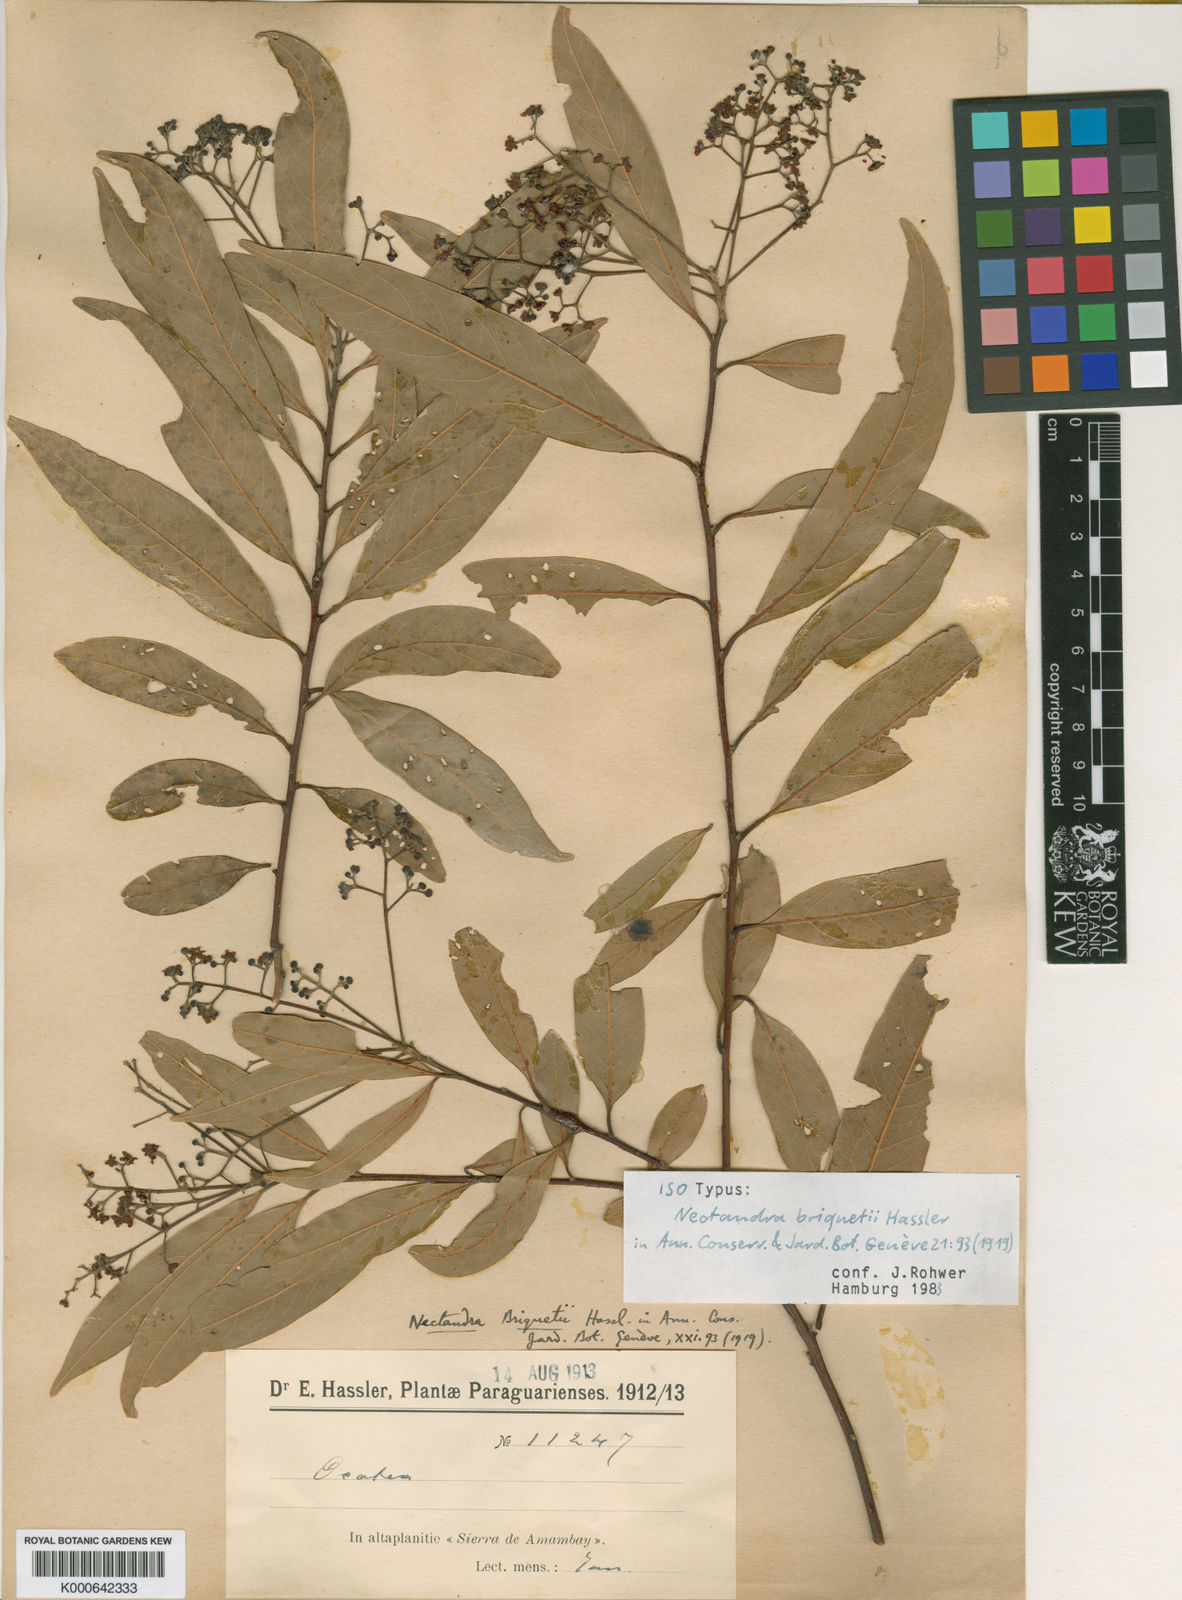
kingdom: Plantae
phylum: Tracheophyta
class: Magnoliopsida
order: Laurales
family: Lauraceae
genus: Nectandra
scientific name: Nectandra megapotamica
